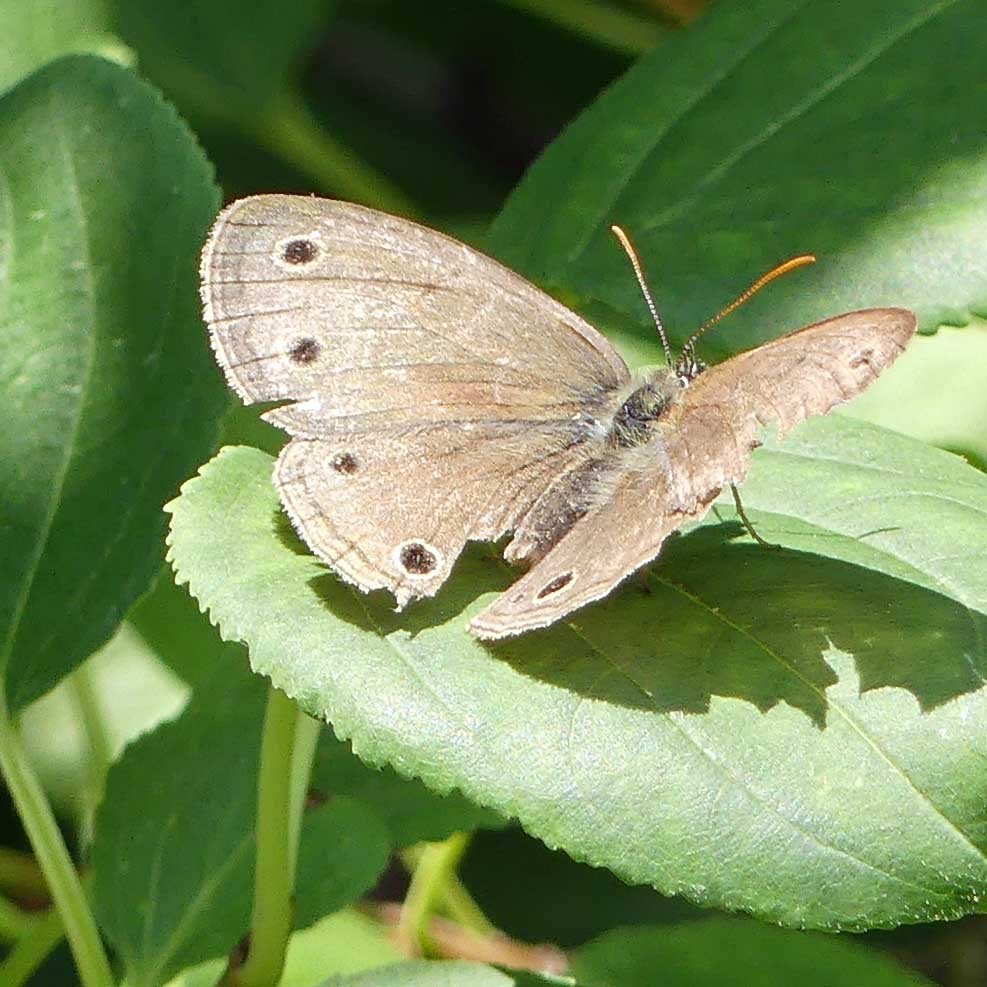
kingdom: Animalia
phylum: Arthropoda
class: Insecta
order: Lepidoptera
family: Nymphalidae
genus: Euptychia
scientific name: Euptychia cymela
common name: Little Wood Satyr
